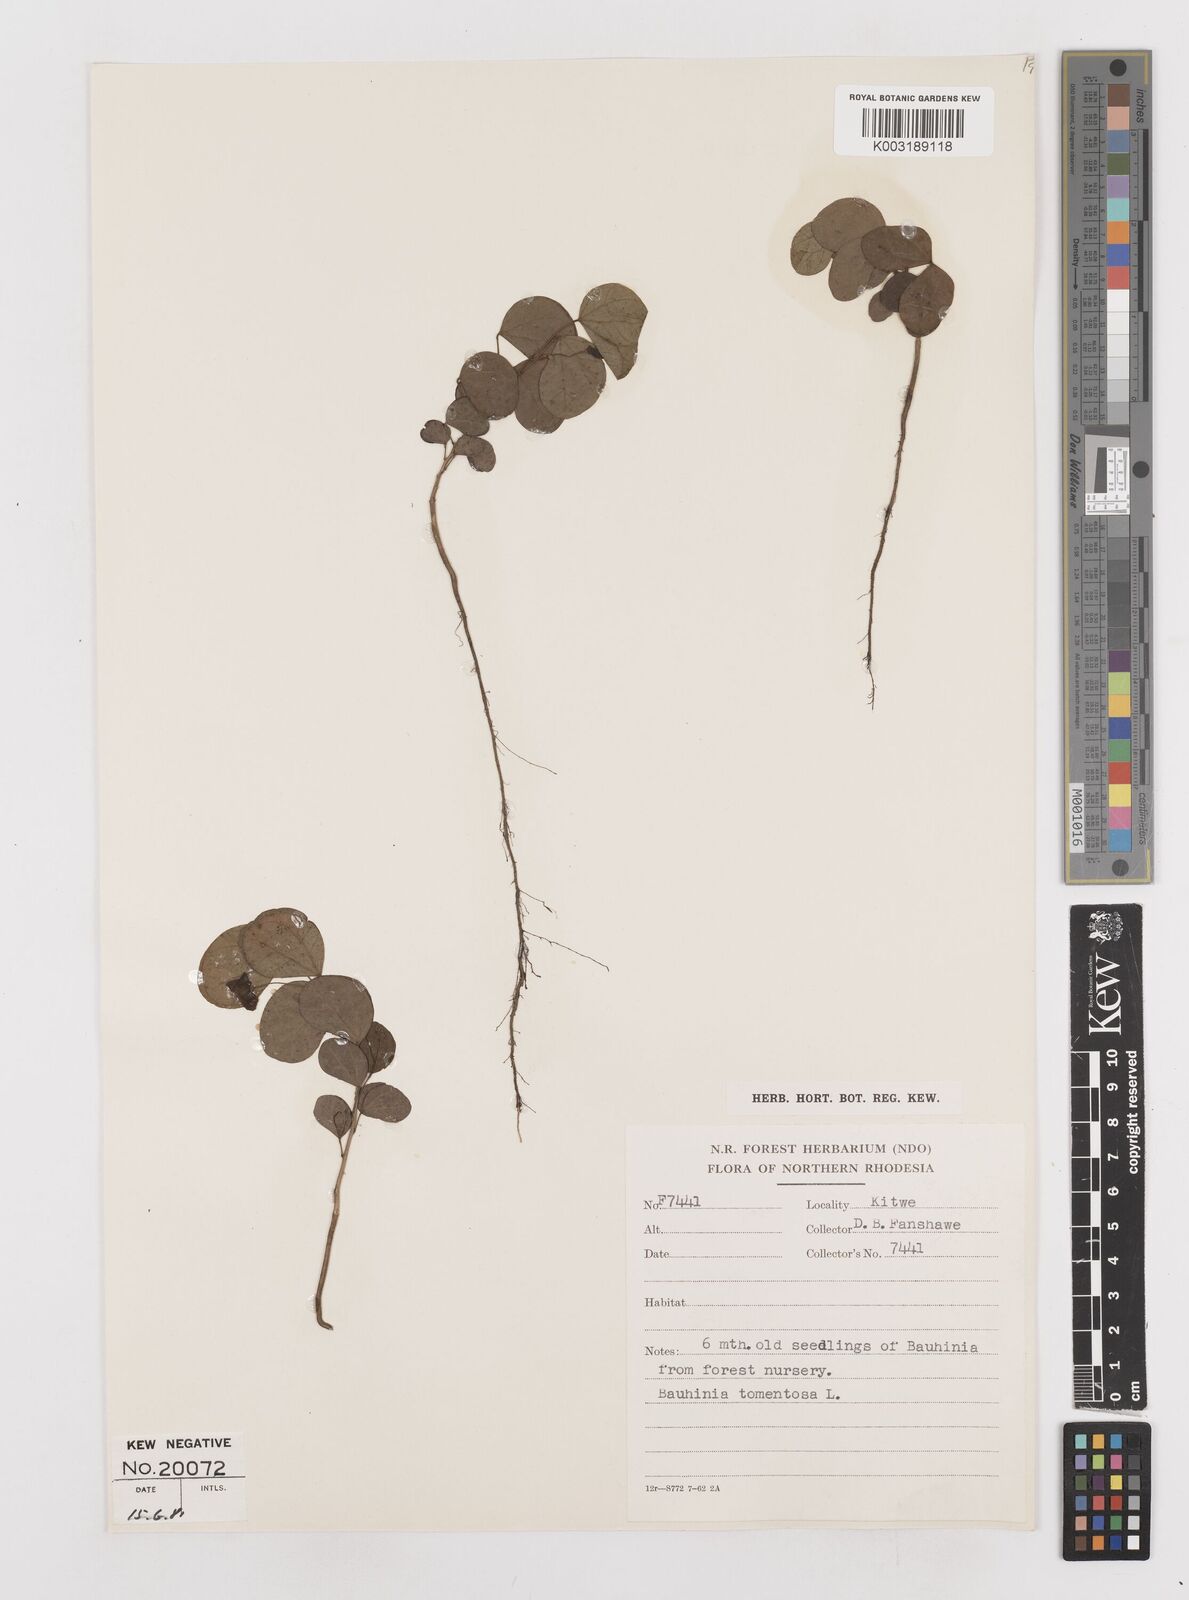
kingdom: Plantae
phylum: Tracheophyta
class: Magnoliopsida
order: Fabales
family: Fabaceae
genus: Bauhinia
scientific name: Bauhinia tomentosa
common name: Bell bauhinia
